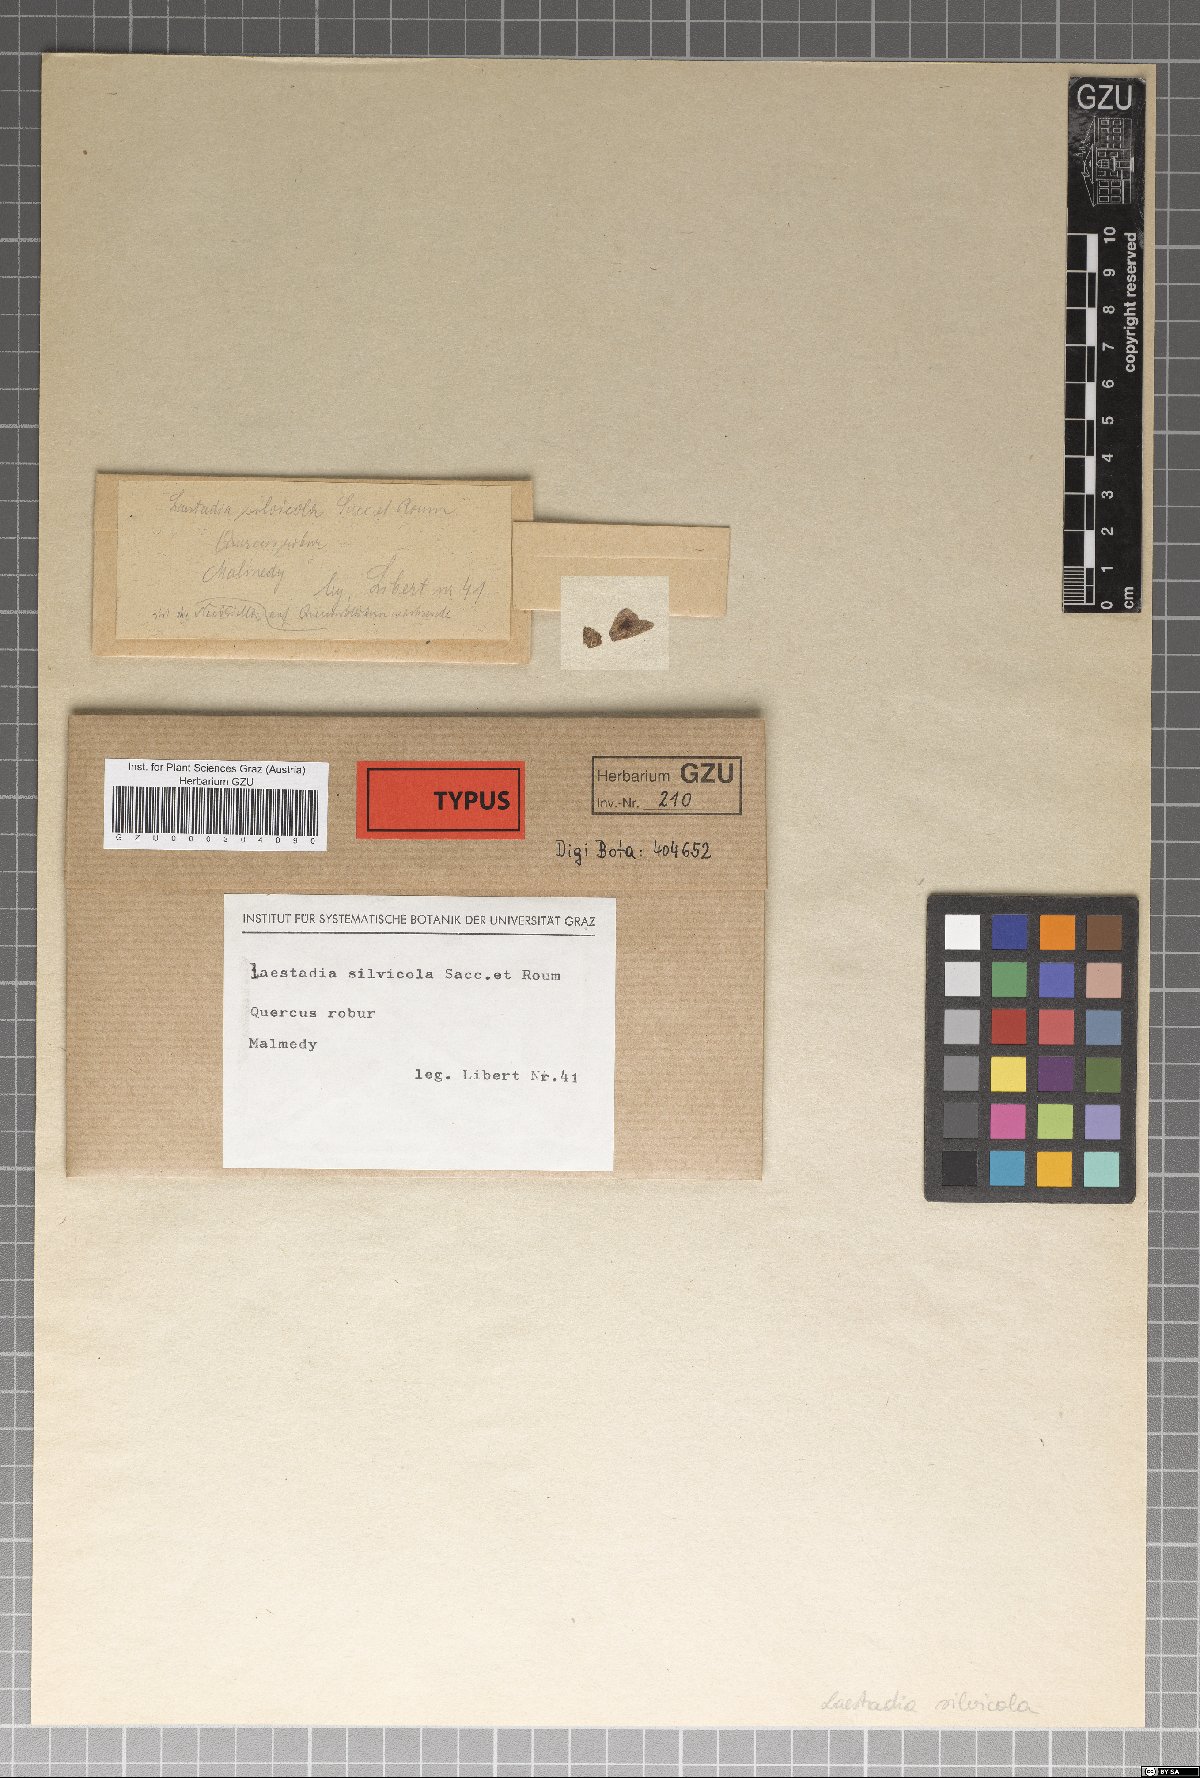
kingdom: Fungi
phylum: Ascomycota
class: Sordariomycetes
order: Diaporthales
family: Gnomoniaceae
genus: Laestadia
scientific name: Laestadia
